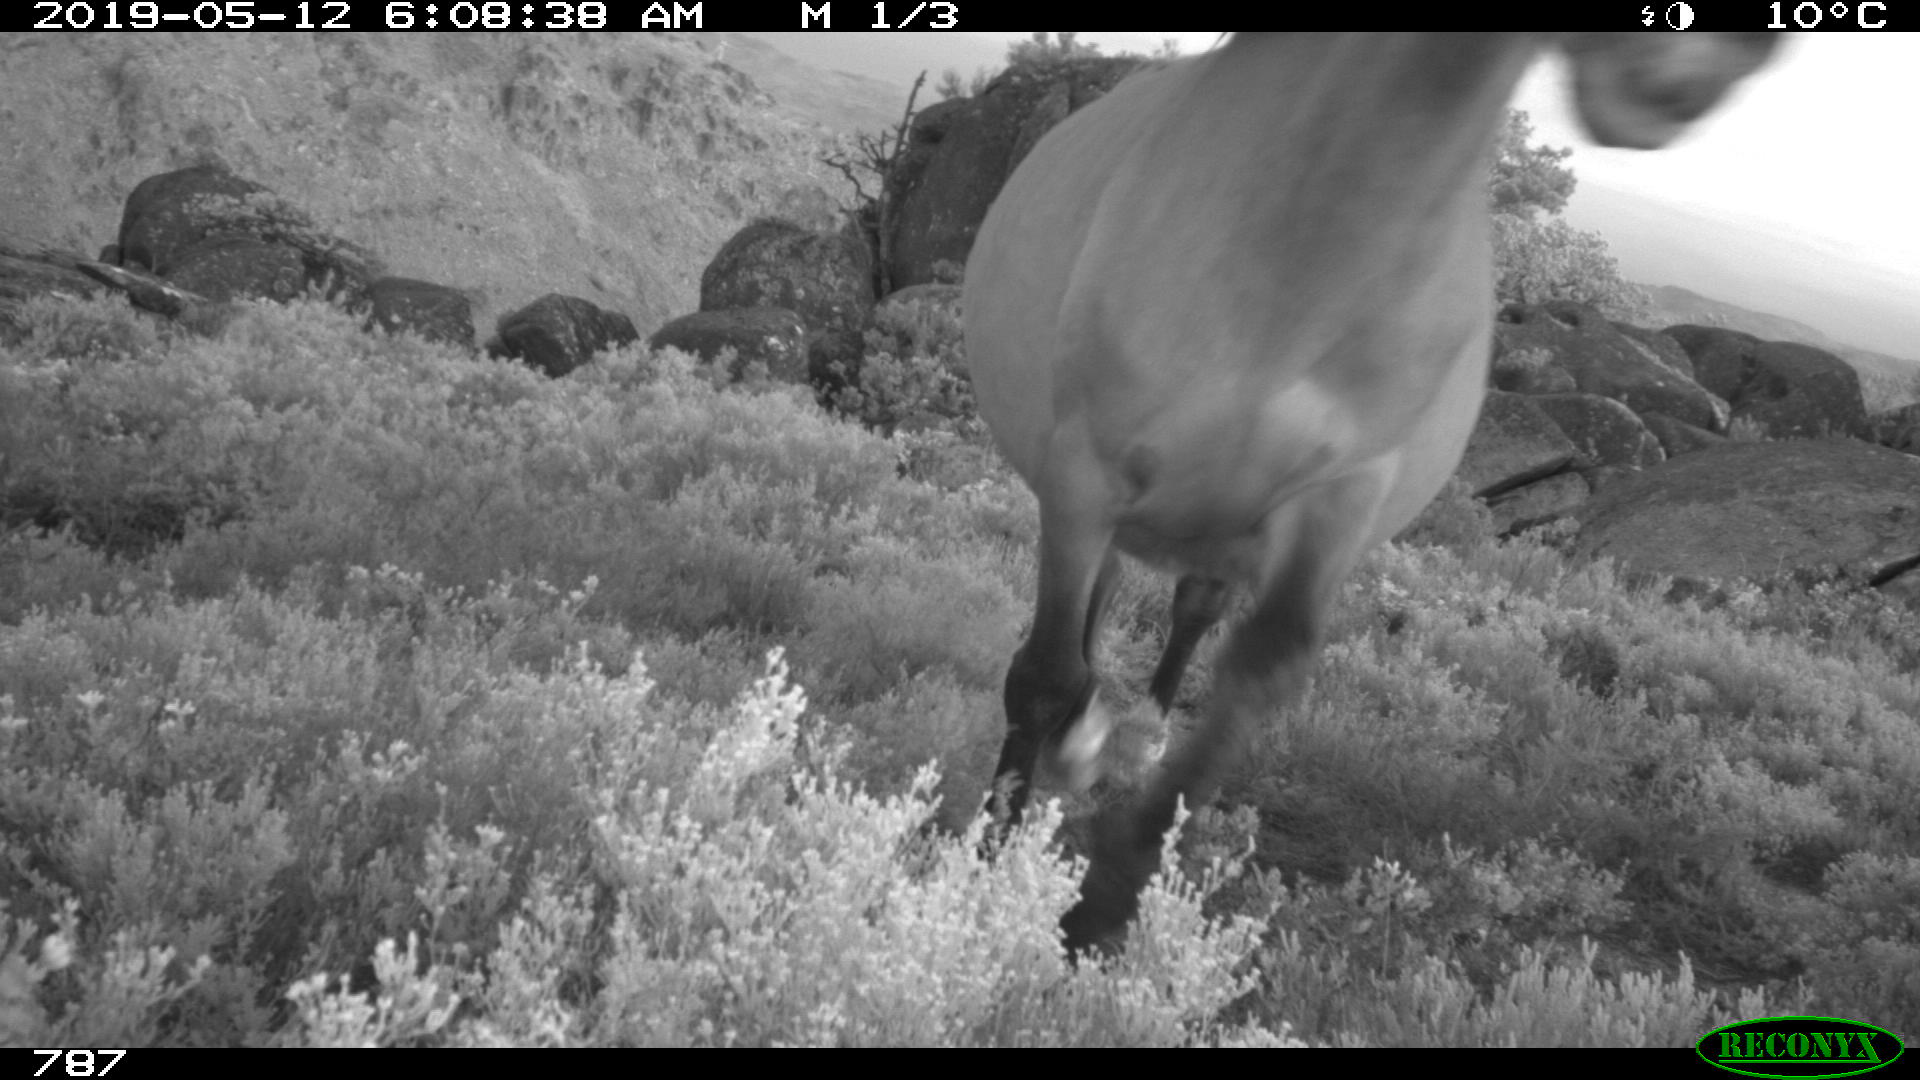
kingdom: Animalia
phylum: Chordata
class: Mammalia
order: Perissodactyla
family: Equidae
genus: Equus
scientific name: Equus caballus
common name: Horse
